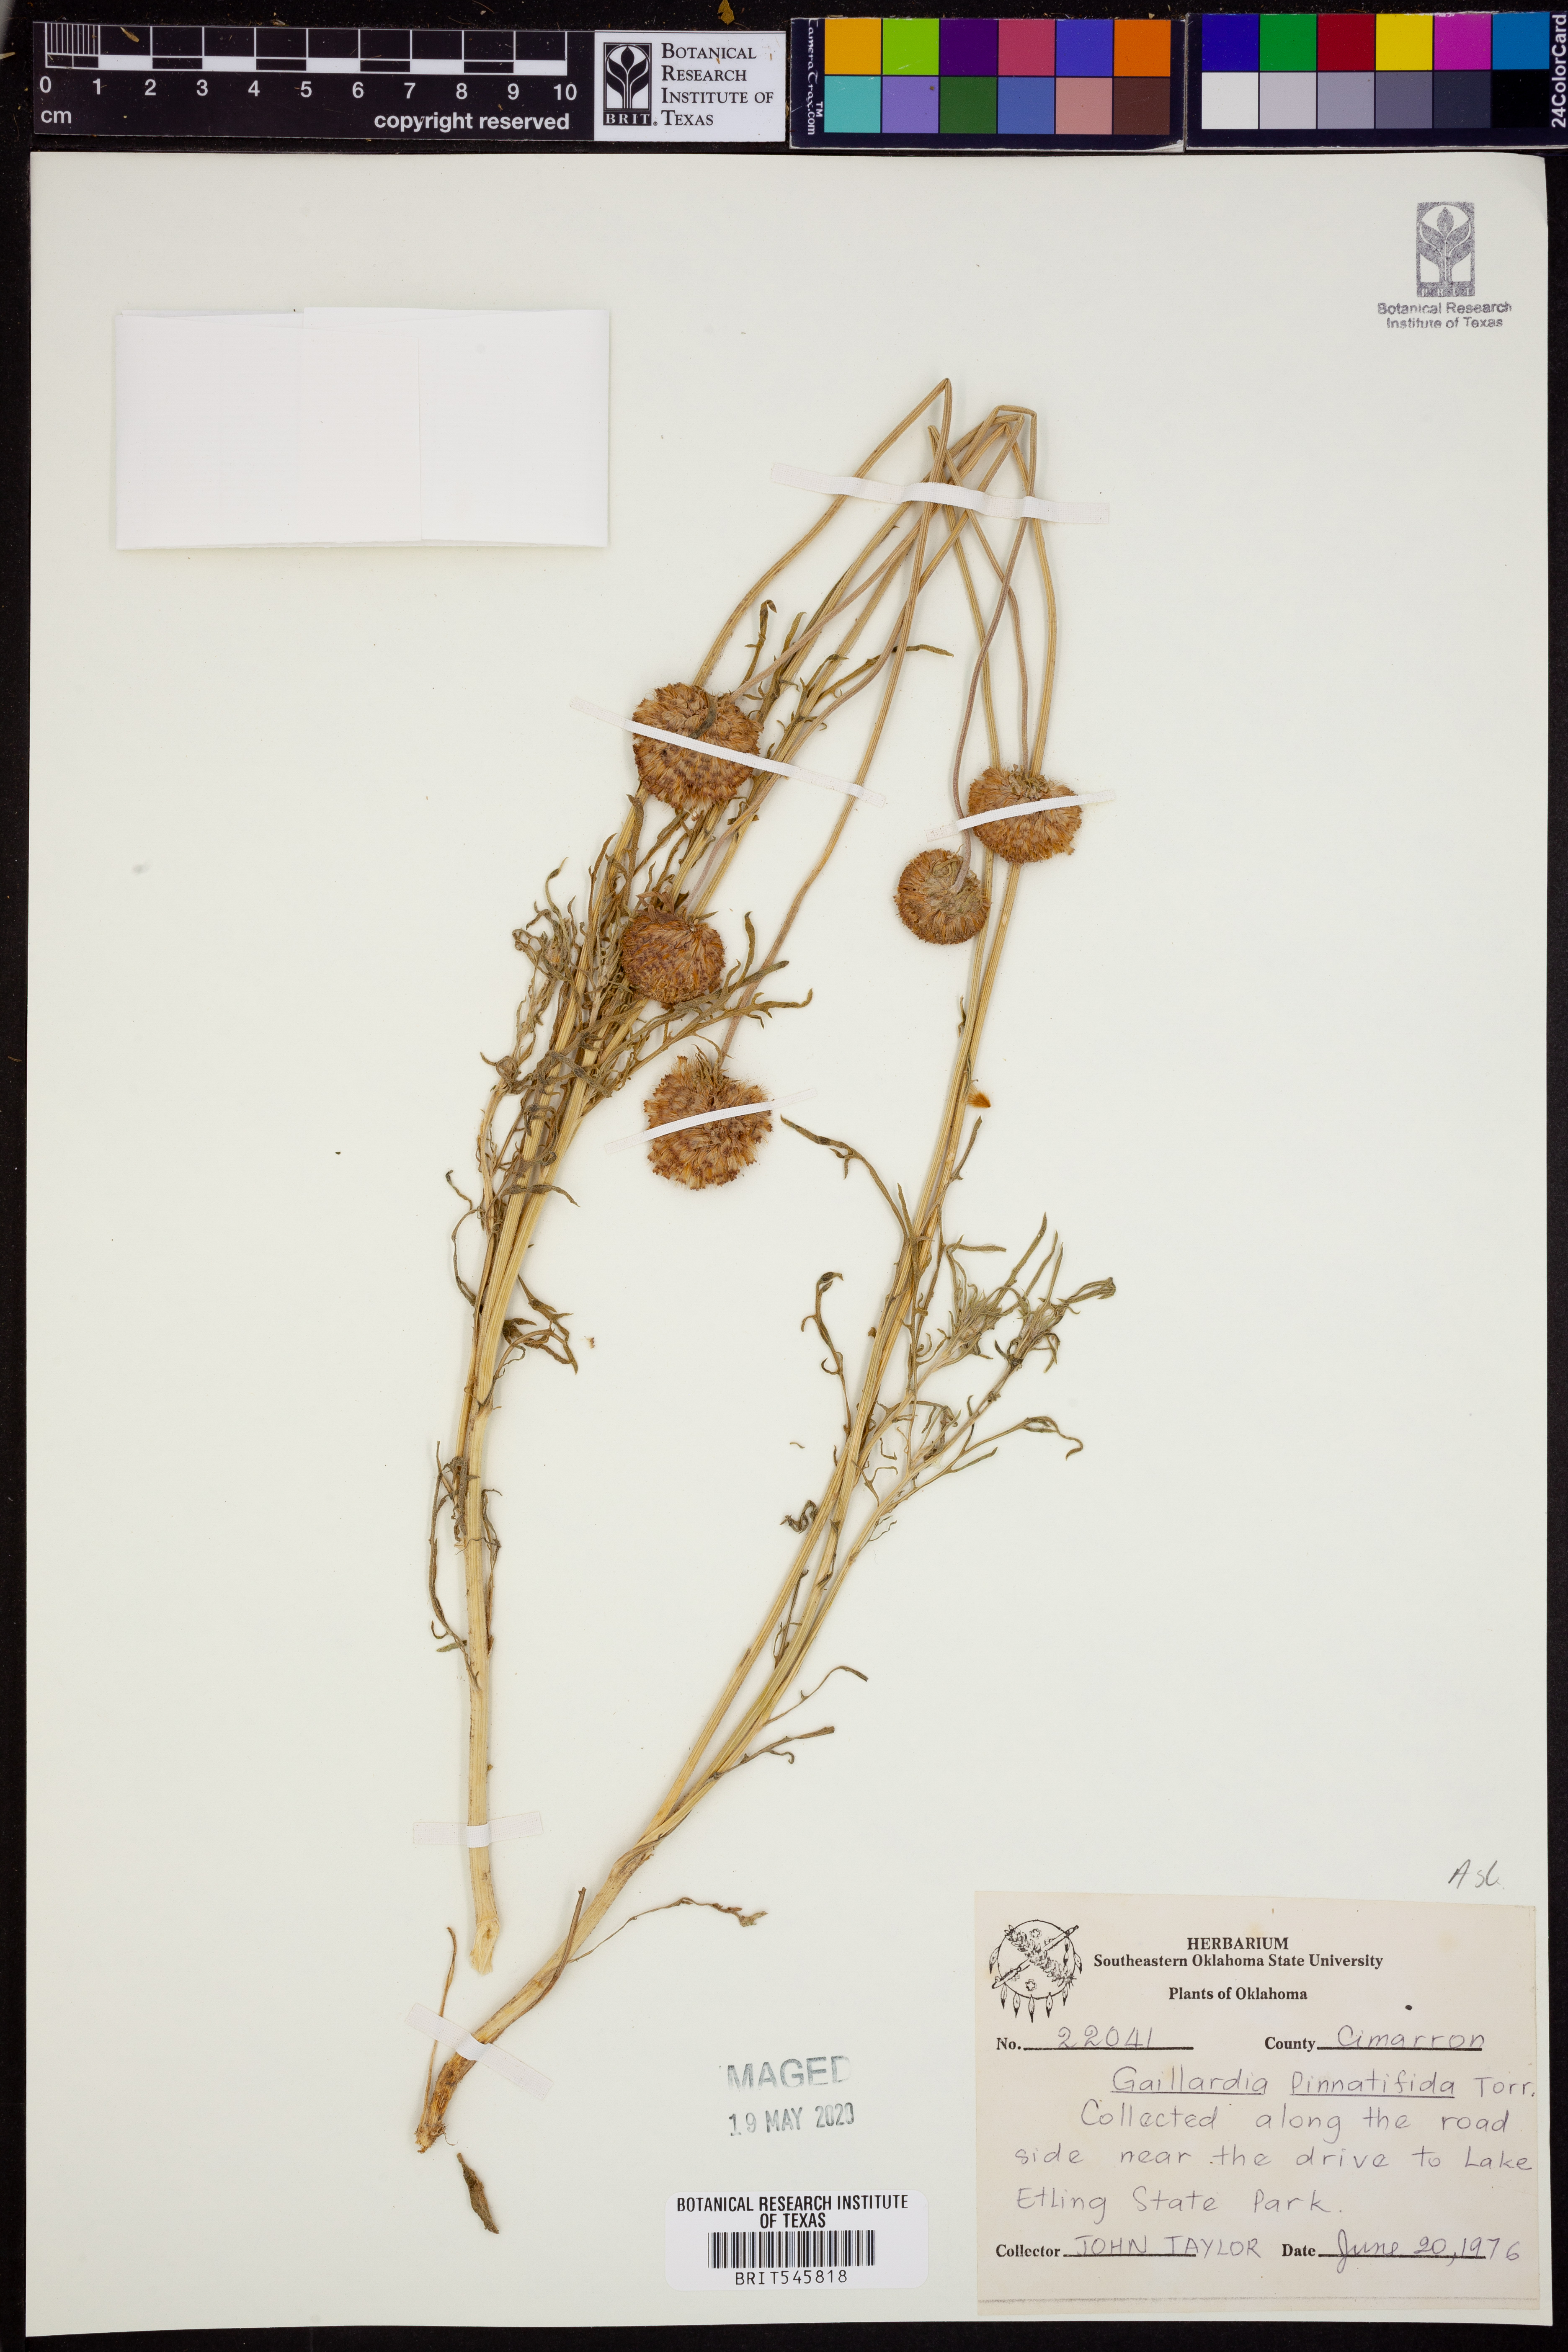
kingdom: Plantae
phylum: Tracheophyta
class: Magnoliopsida
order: Asterales
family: Asteraceae
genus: Gaillardia
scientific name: Gaillardia pinnatifida
